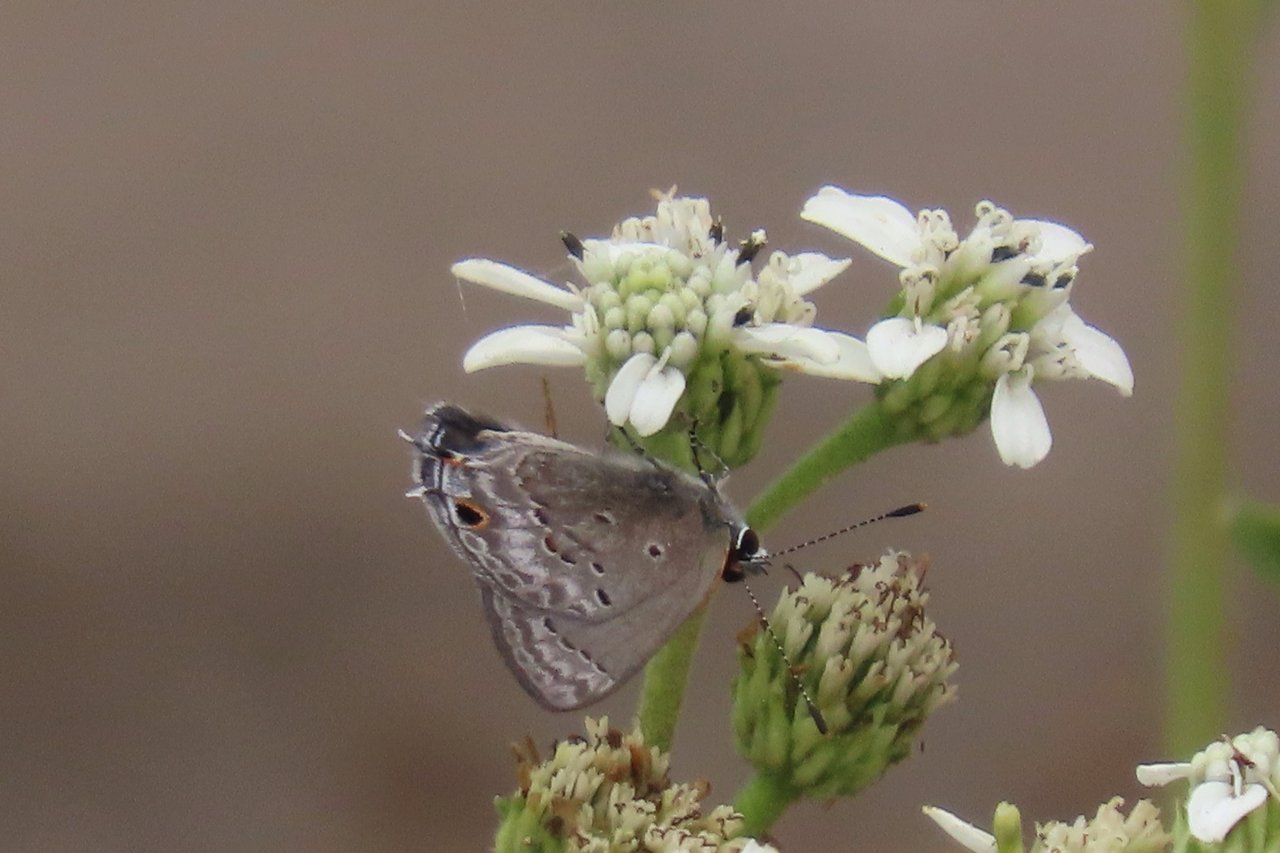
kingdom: Animalia
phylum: Arthropoda
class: Insecta
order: Lepidoptera
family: Lycaenidae
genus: Callicista
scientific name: Callicista columella
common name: Mallow Scrub-Hairstreak
